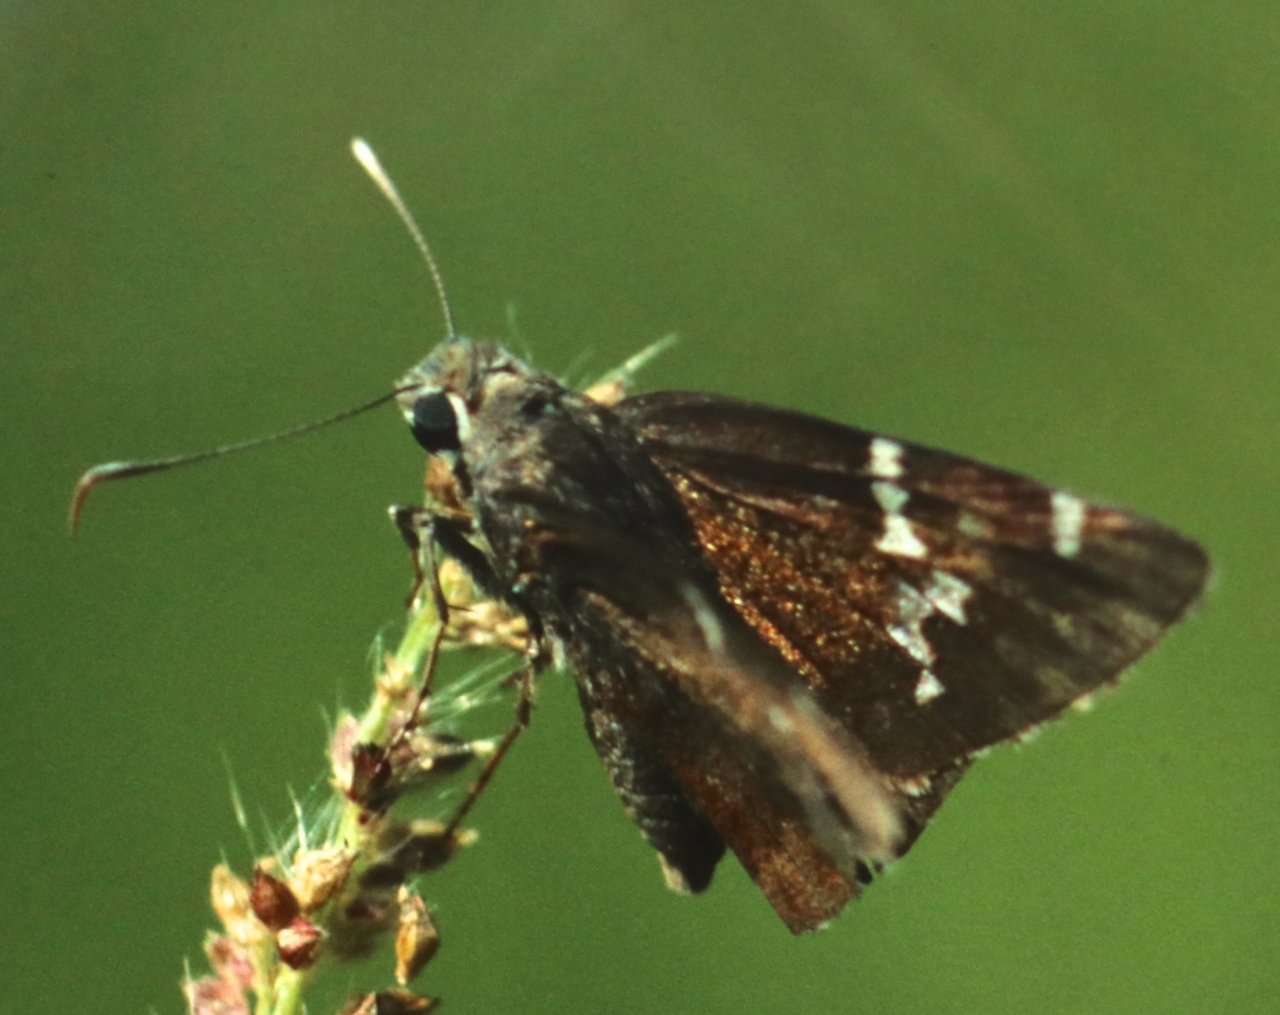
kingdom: Animalia
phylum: Arthropoda
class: Insecta
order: Lepidoptera
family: Hesperiidae
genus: Autochton
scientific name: Autochton
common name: Southern Cloudywing
